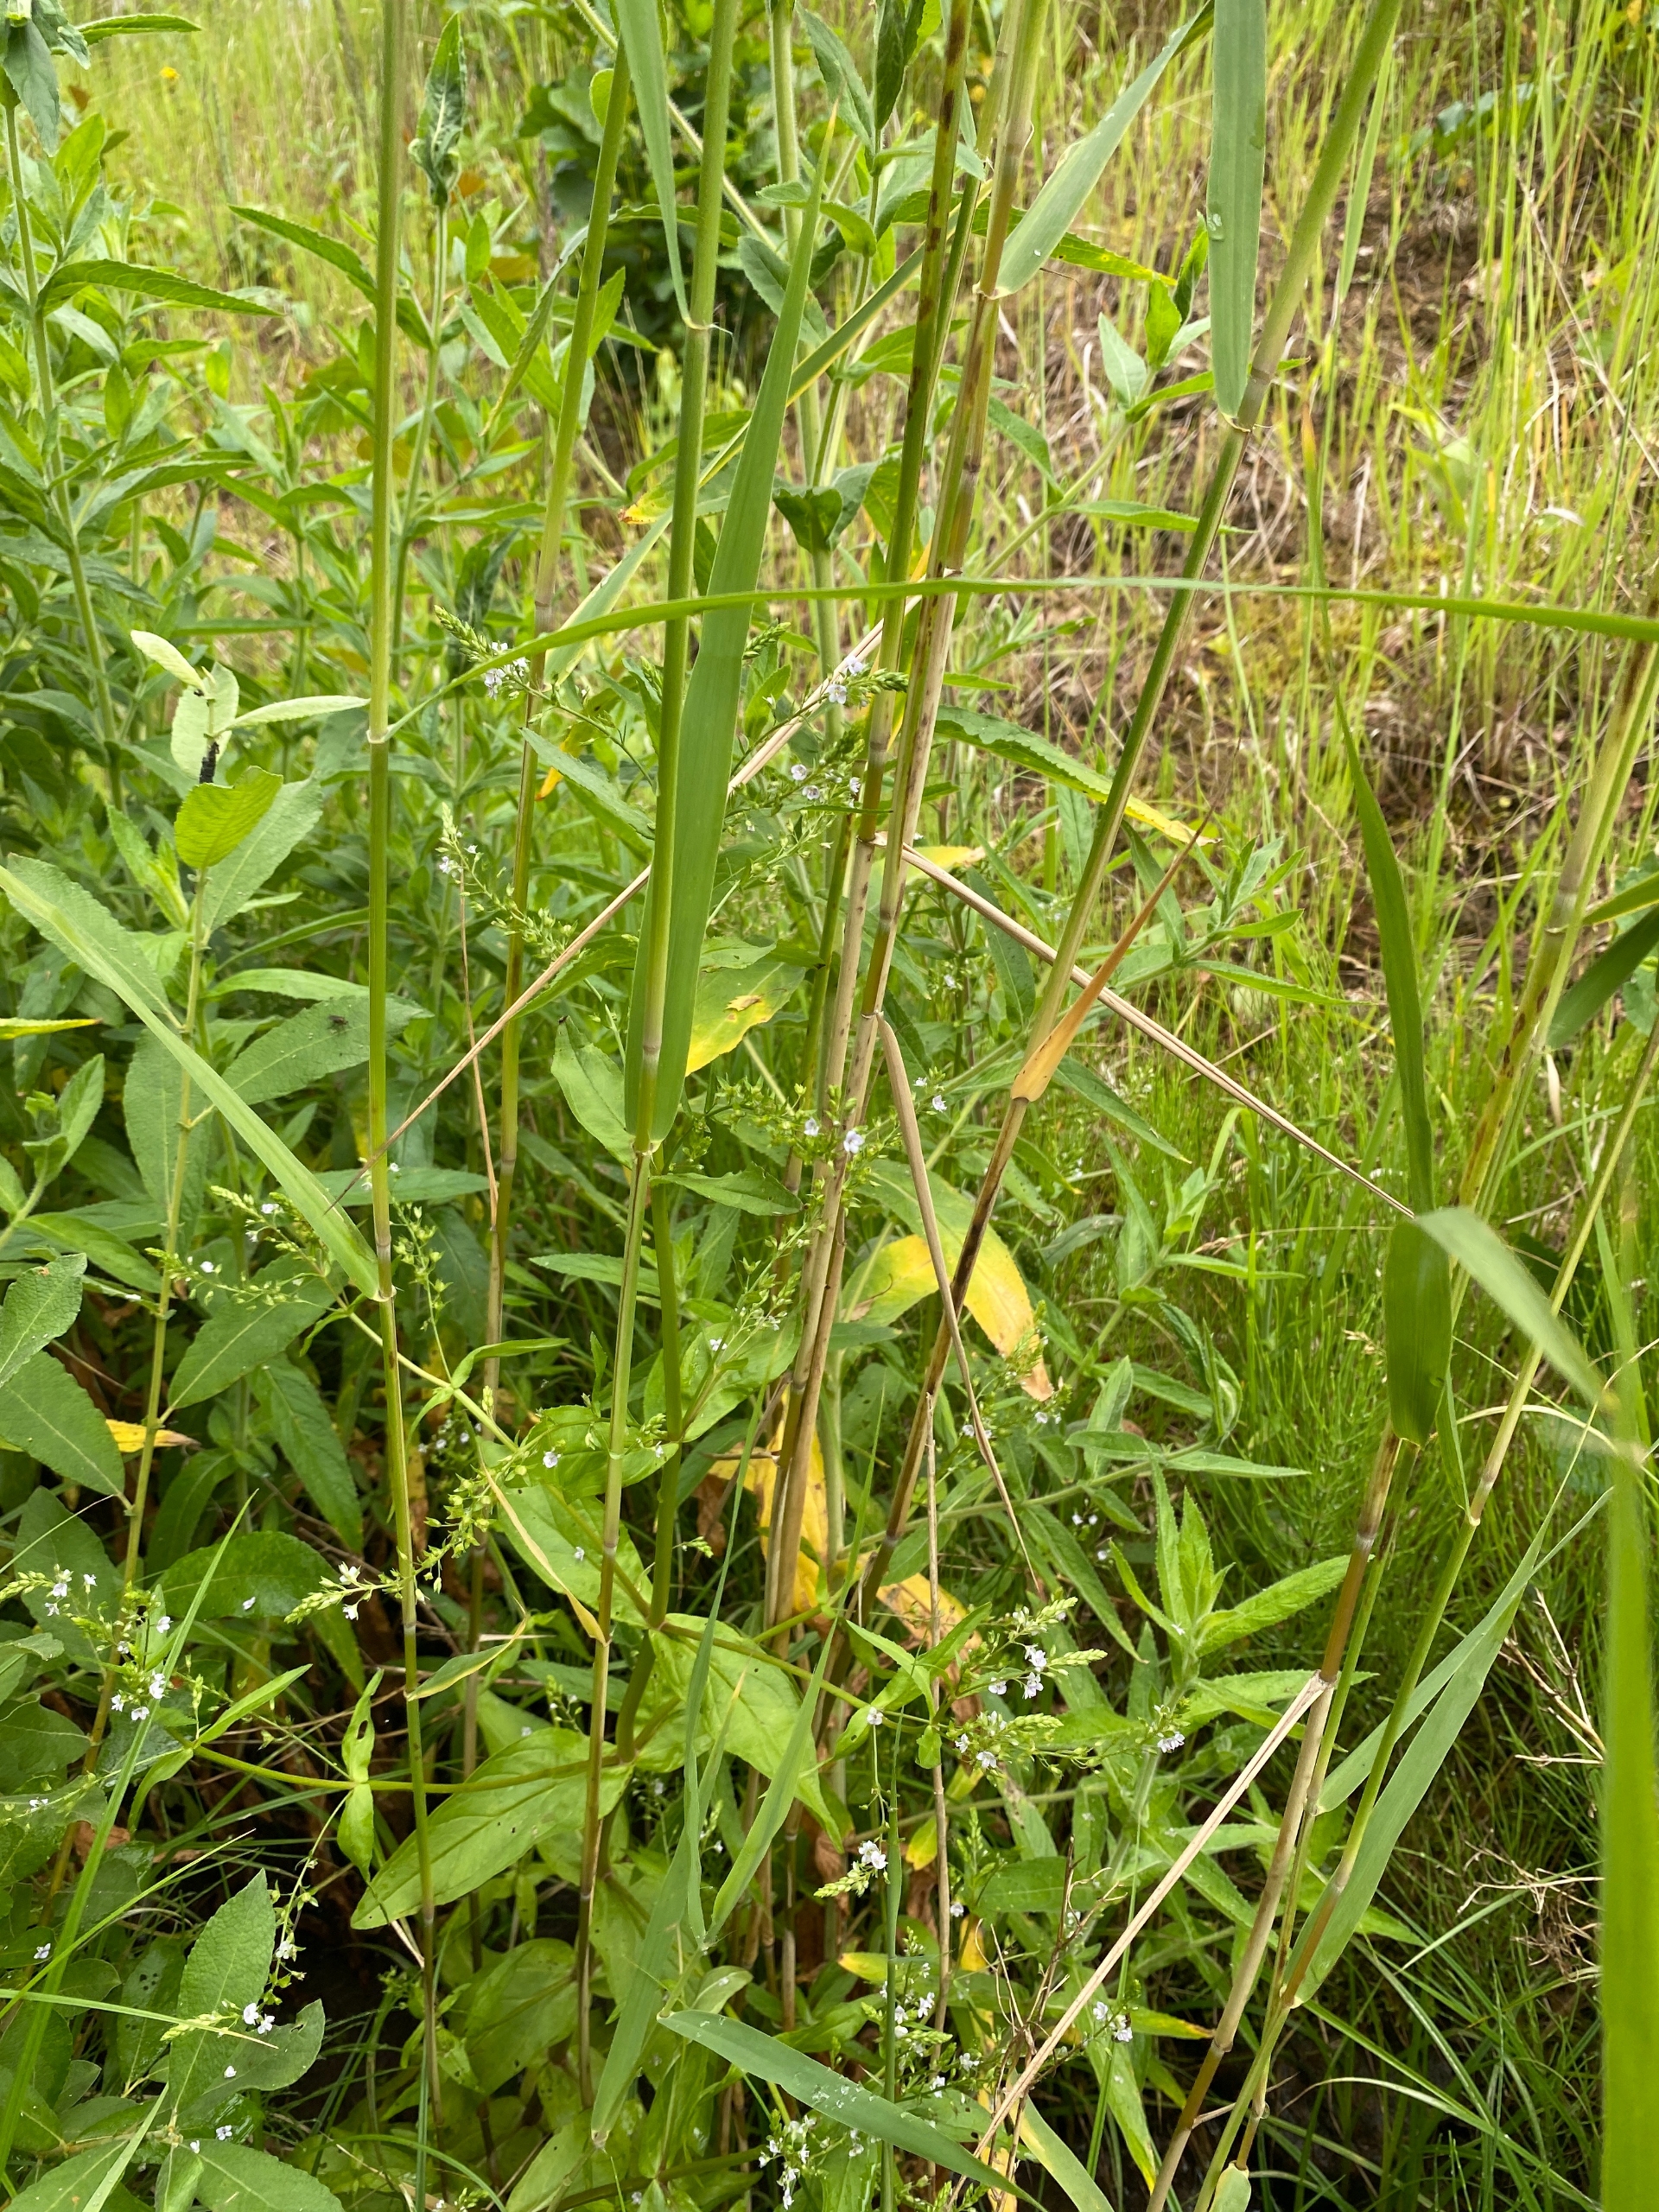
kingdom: Plantae
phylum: Tracheophyta
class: Magnoliopsida
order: Lamiales
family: Plantaginaceae
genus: Veronica
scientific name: Veronica anagallis-aquatica
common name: Lancetbladet ærenpris
